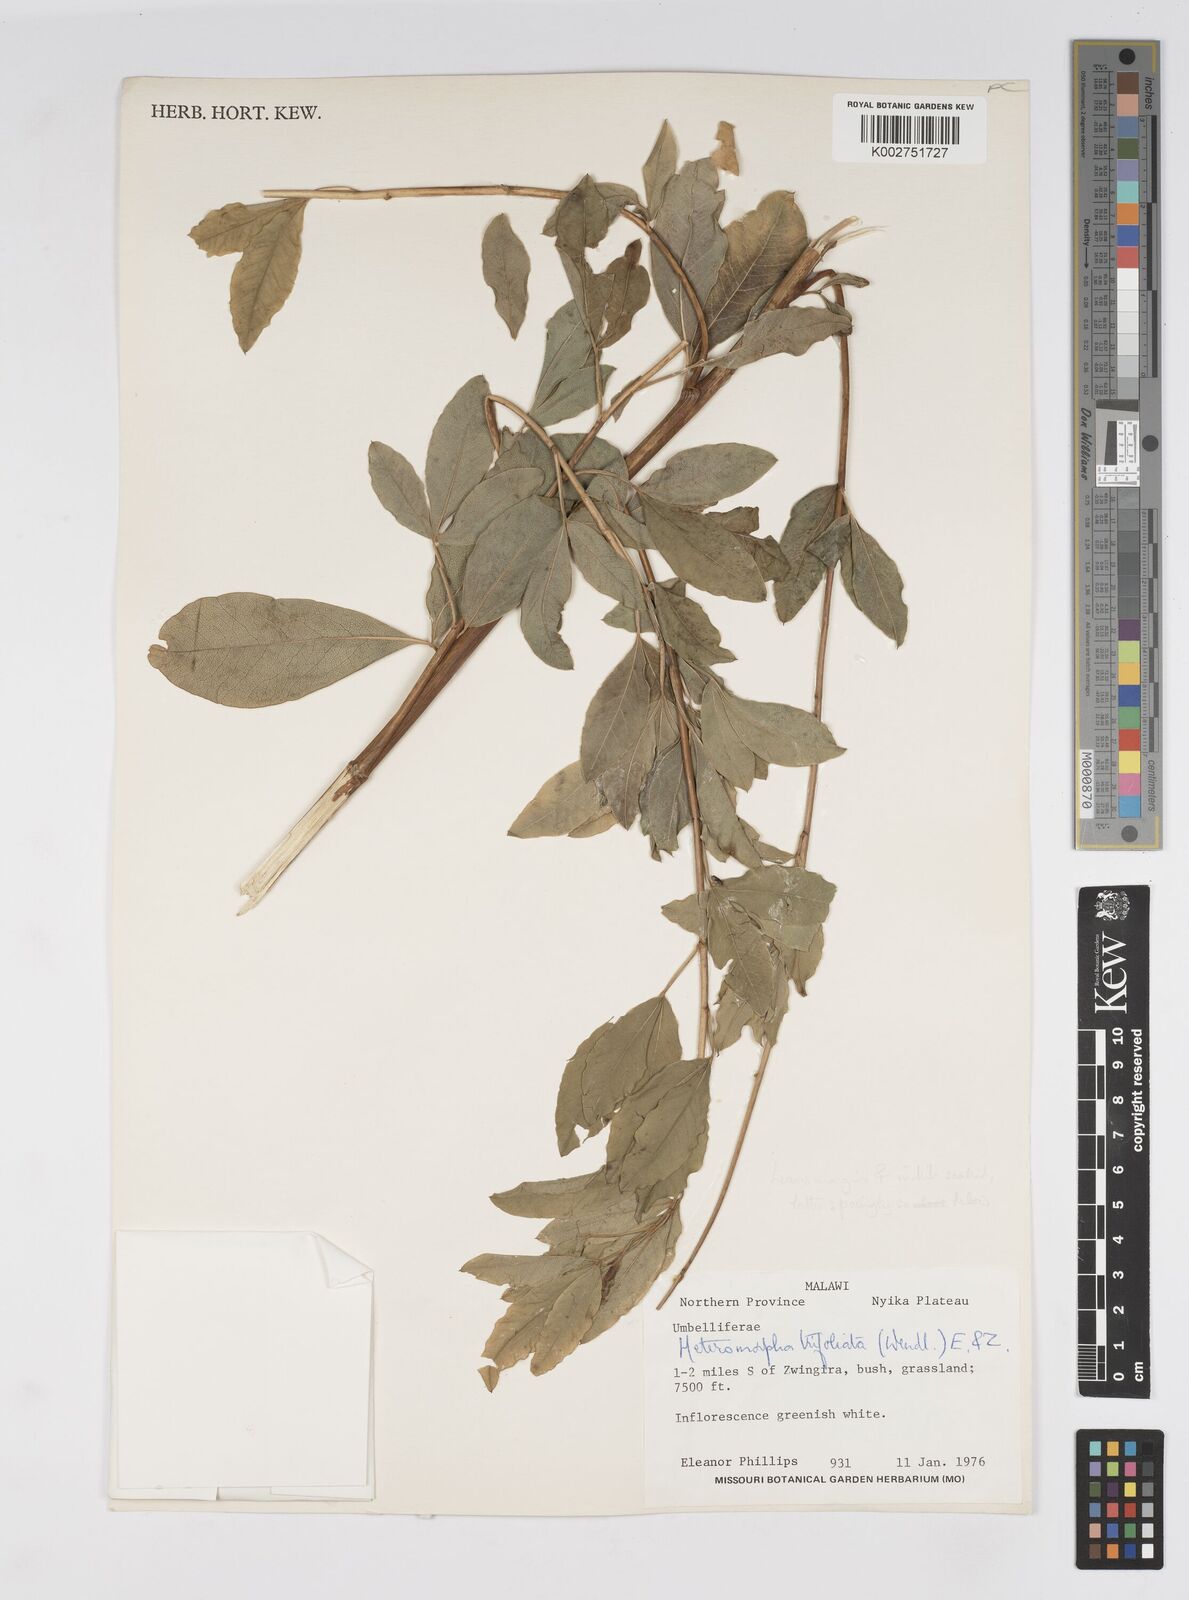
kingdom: Plantae
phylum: Tracheophyta
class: Magnoliopsida
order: Apiales
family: Apiaceae
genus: Heteromorpha
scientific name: Heteromorpha involucrata
